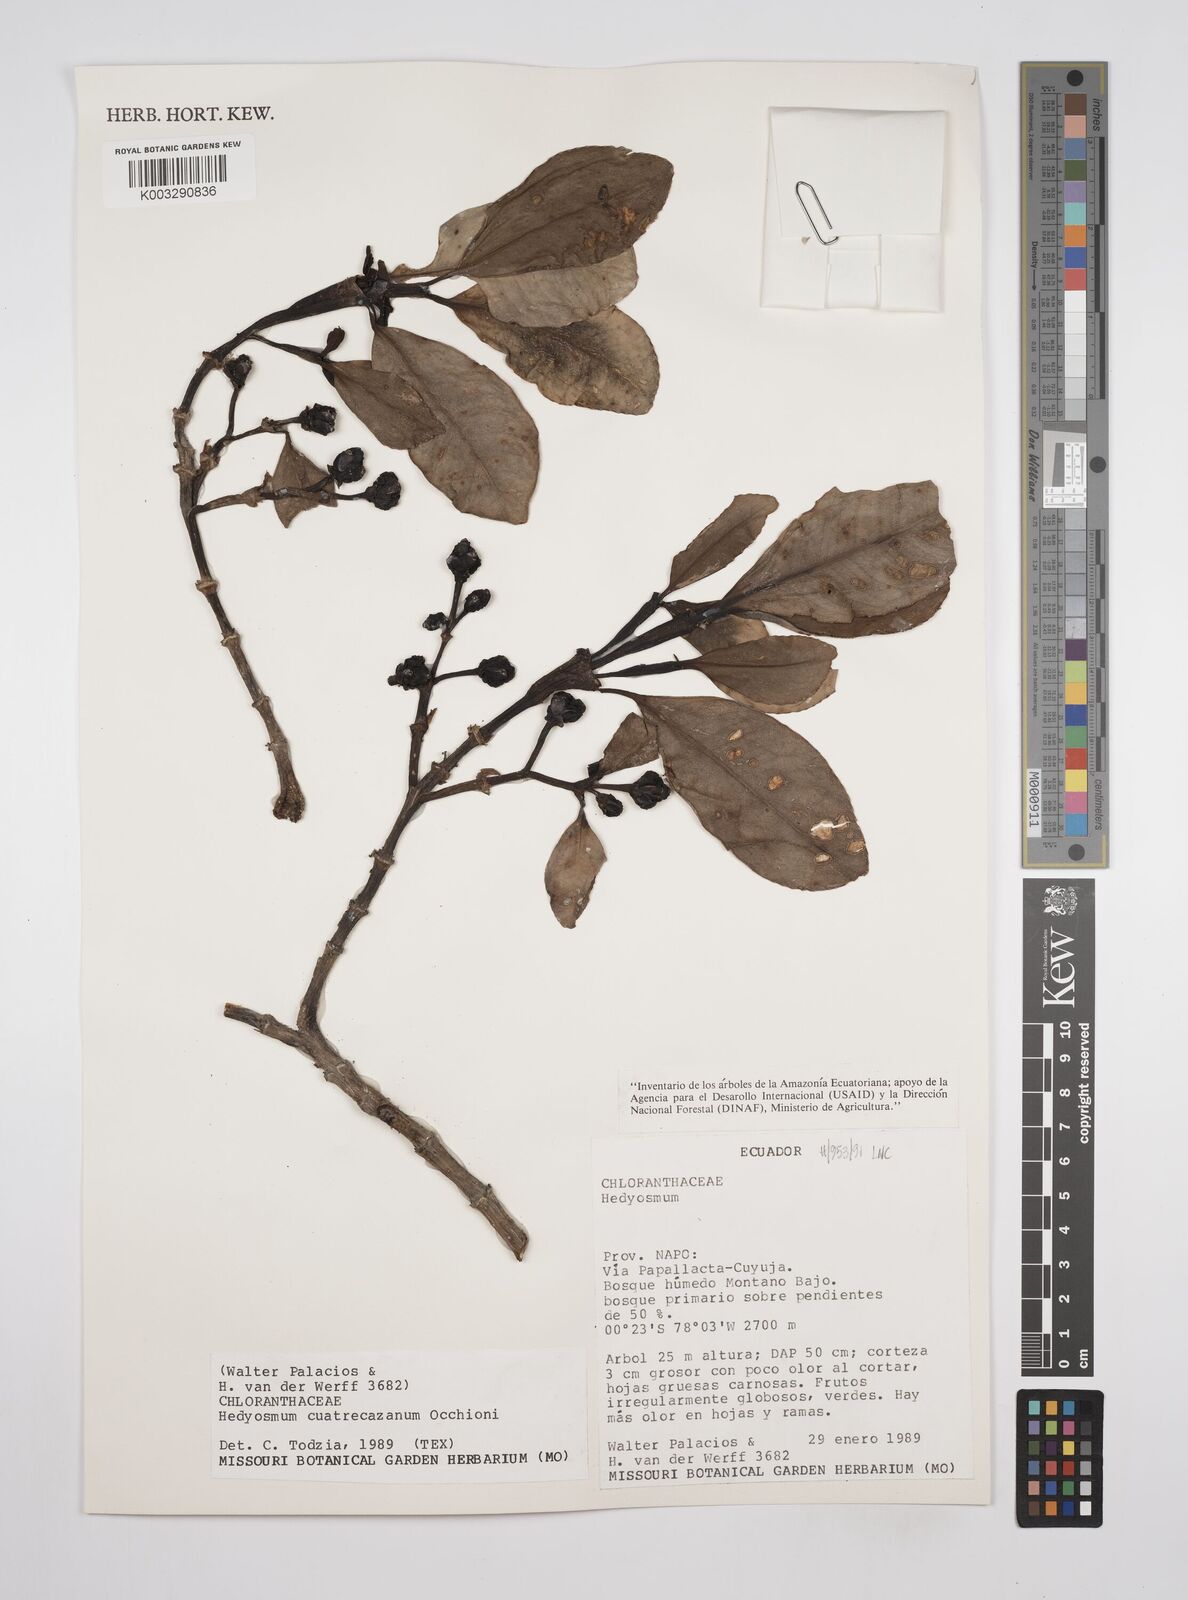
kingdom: Plantae
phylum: Tracheophyta
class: Magnoliopsida
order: Chloranthales
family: Chloranthaceae
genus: Hedyosmum
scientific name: Hedyosmum cuatrecazanum
